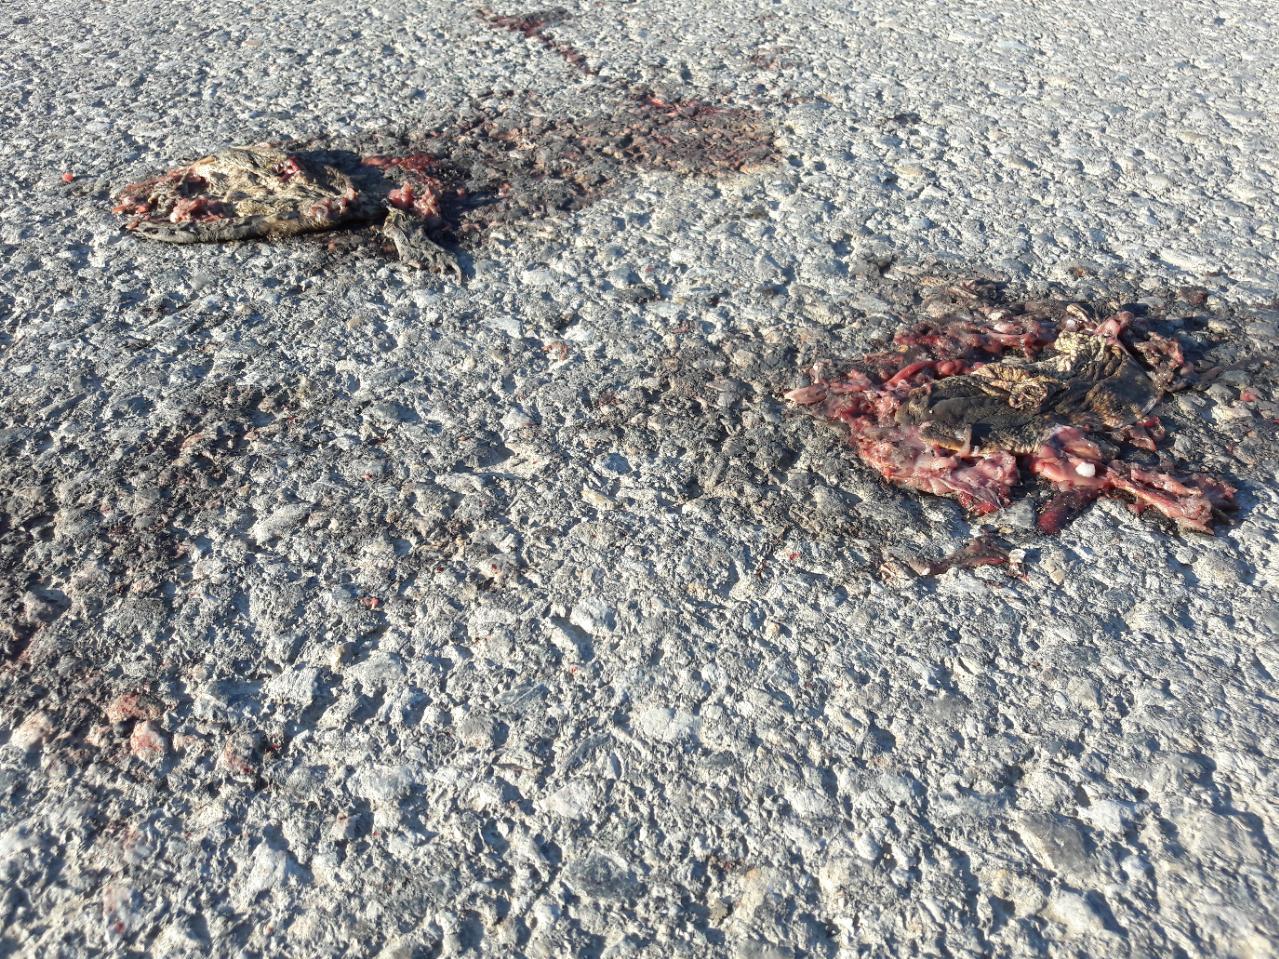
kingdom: Animalia
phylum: Chordata
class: Amphibia
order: Anura
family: Bufonidae
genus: Bufo
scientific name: Bufo bufo
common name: Common toad
